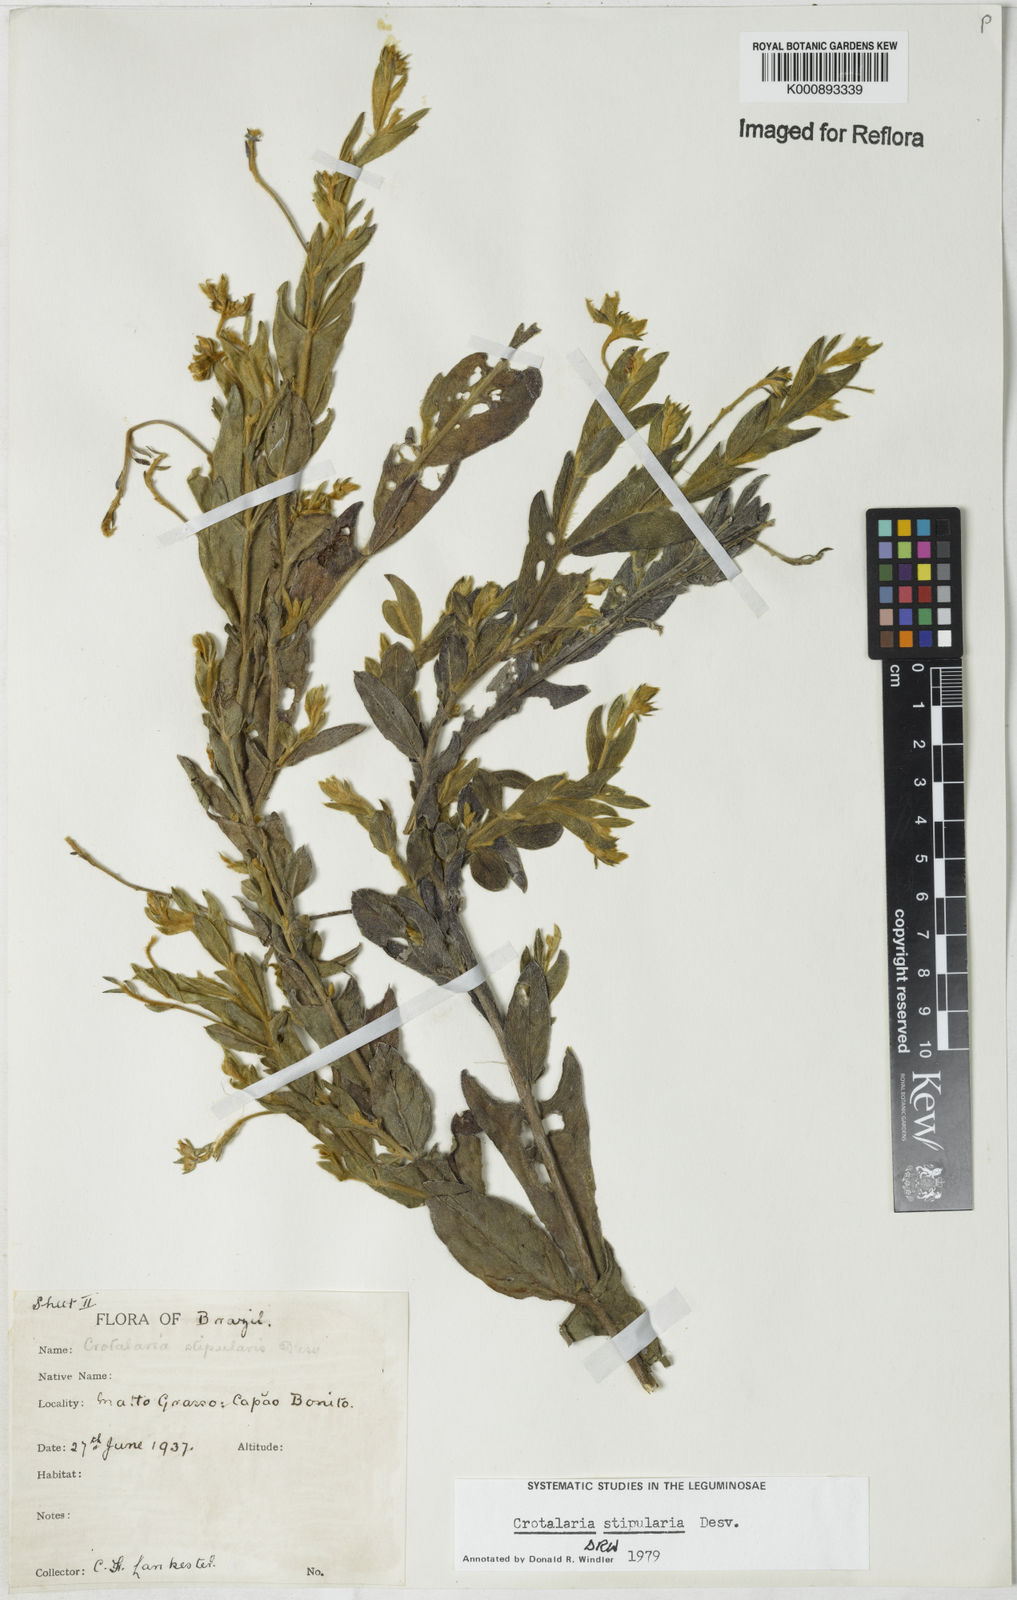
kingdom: Plantae
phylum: Tracheophyta
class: Magnoliopsida
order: Fabales
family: Fabaceae
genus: Crotalaria
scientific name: Crotalaria stipularia
